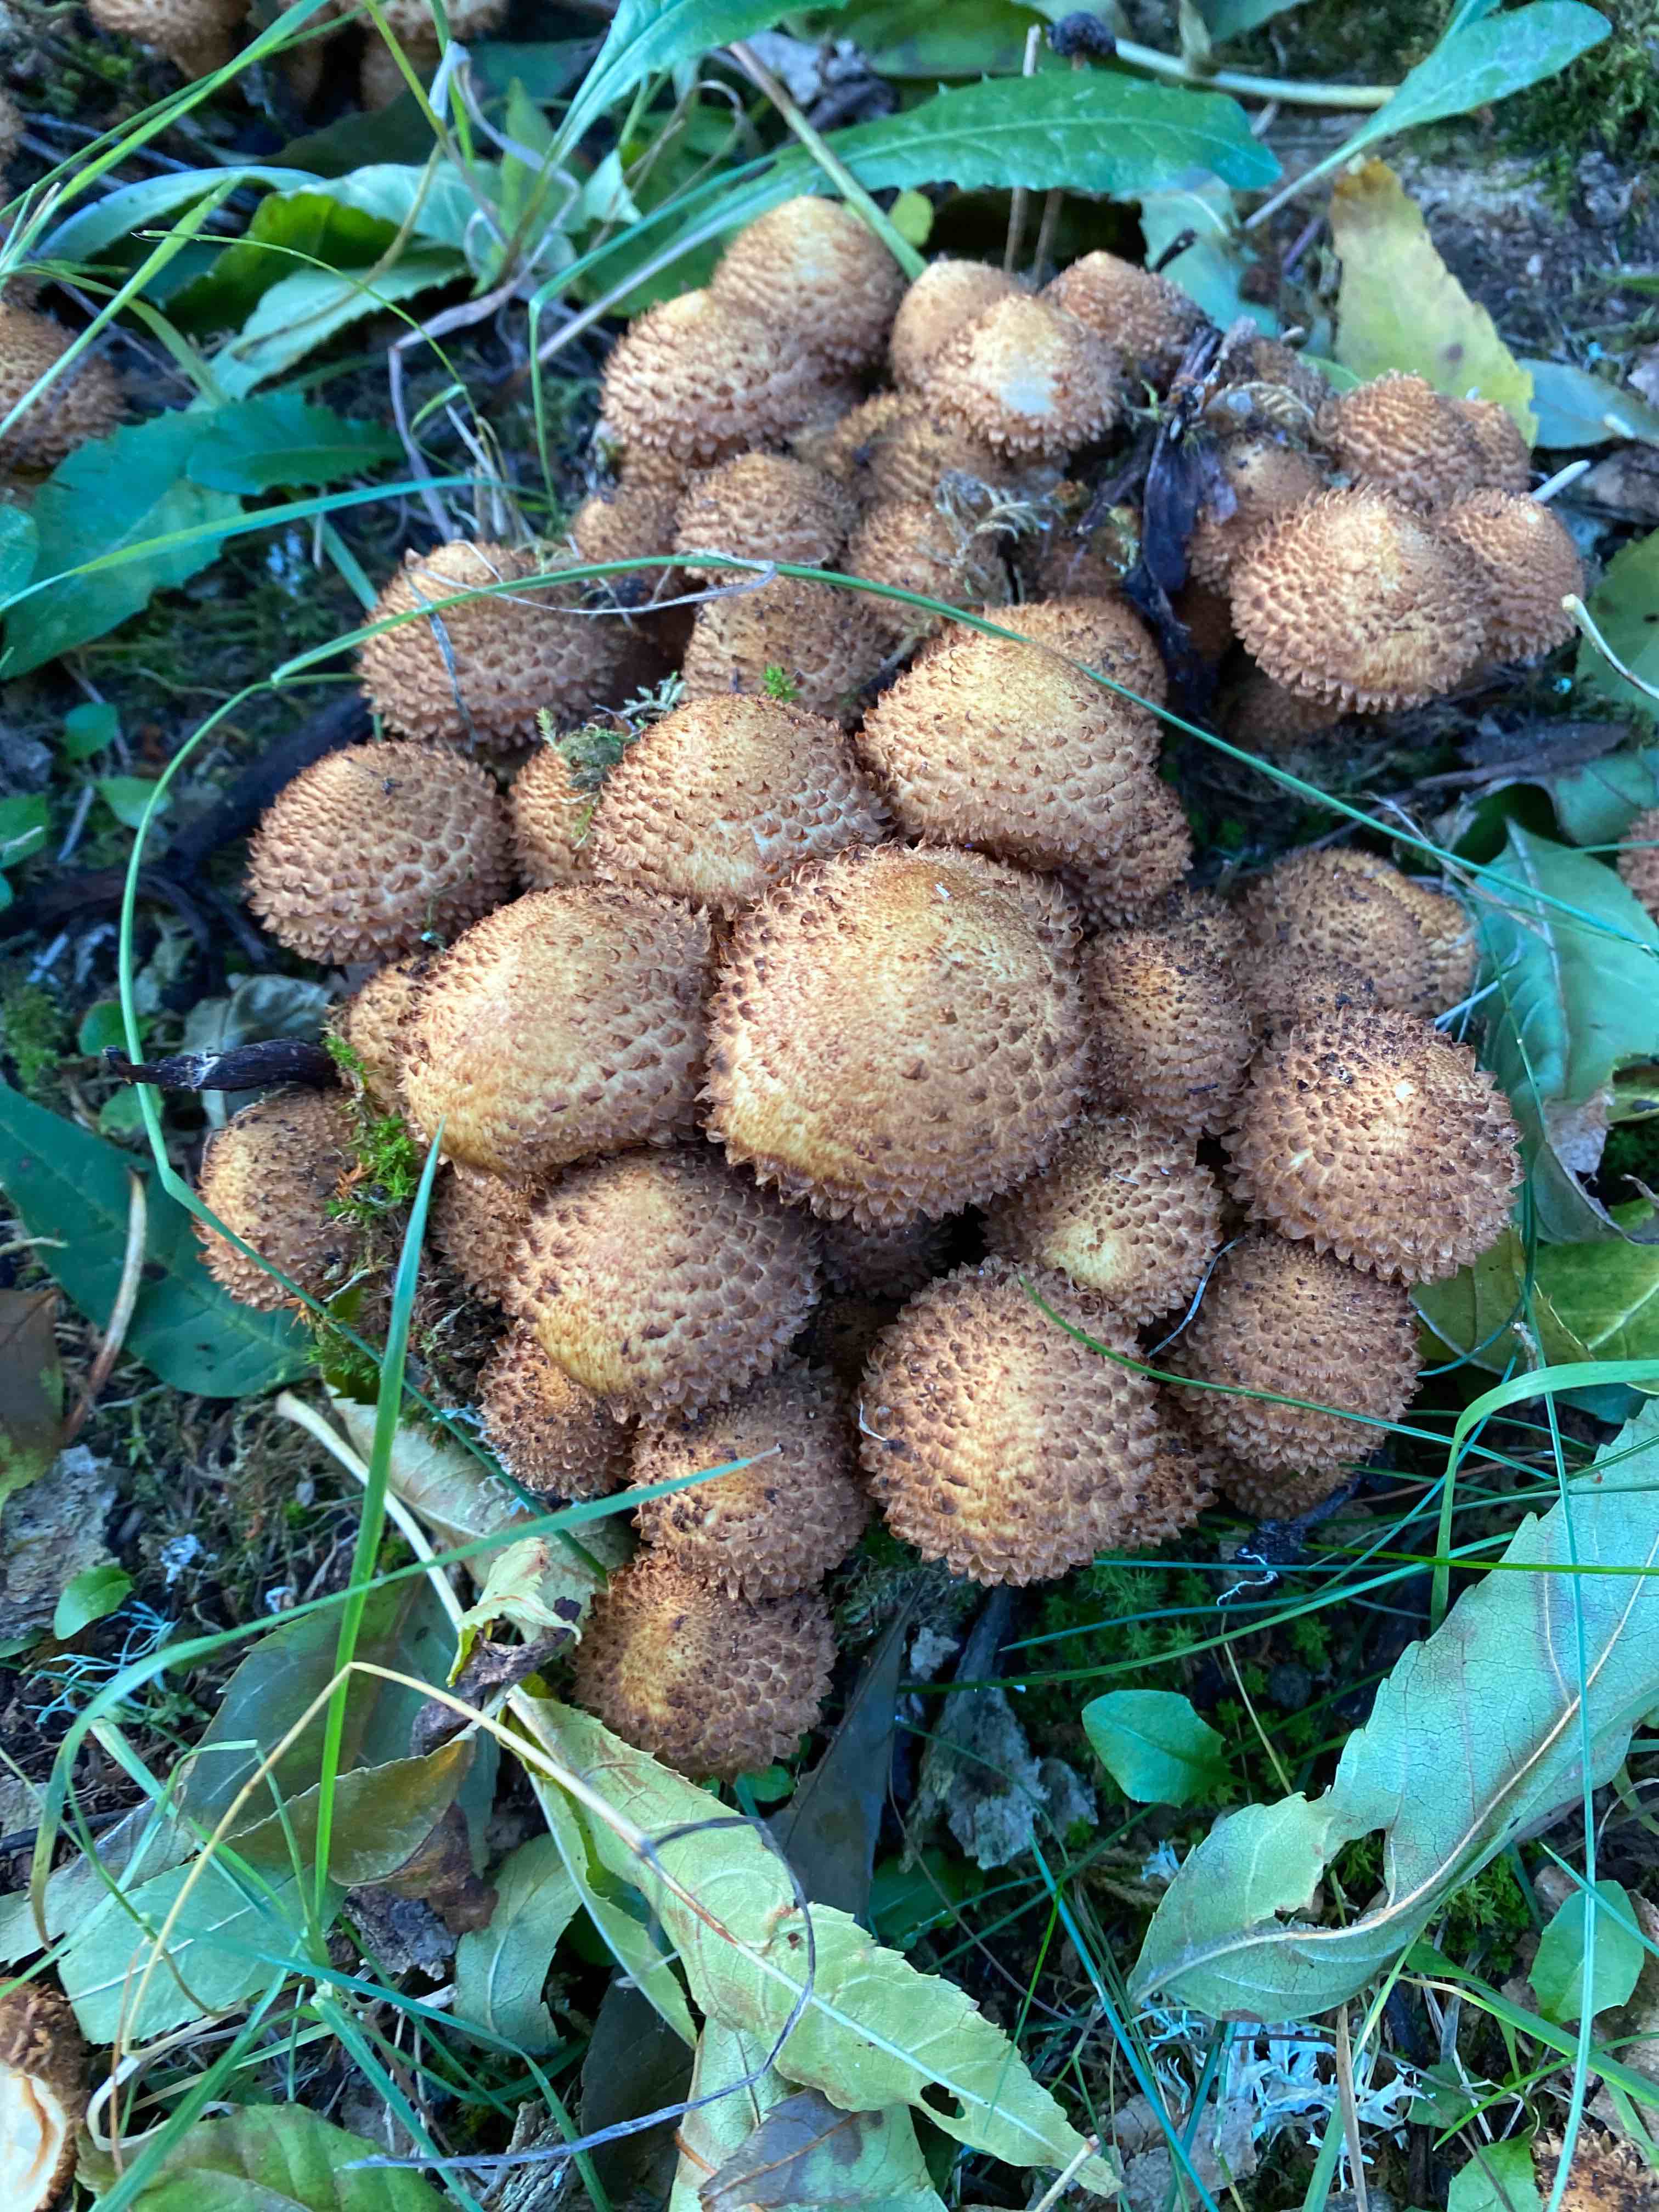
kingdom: Fungi
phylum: Basidiomycota
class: Agaricomycetes
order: Agaricales
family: Strophariaceae
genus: Pholiota
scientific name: Pholiota squarrosa
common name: krumskællet skælhat
